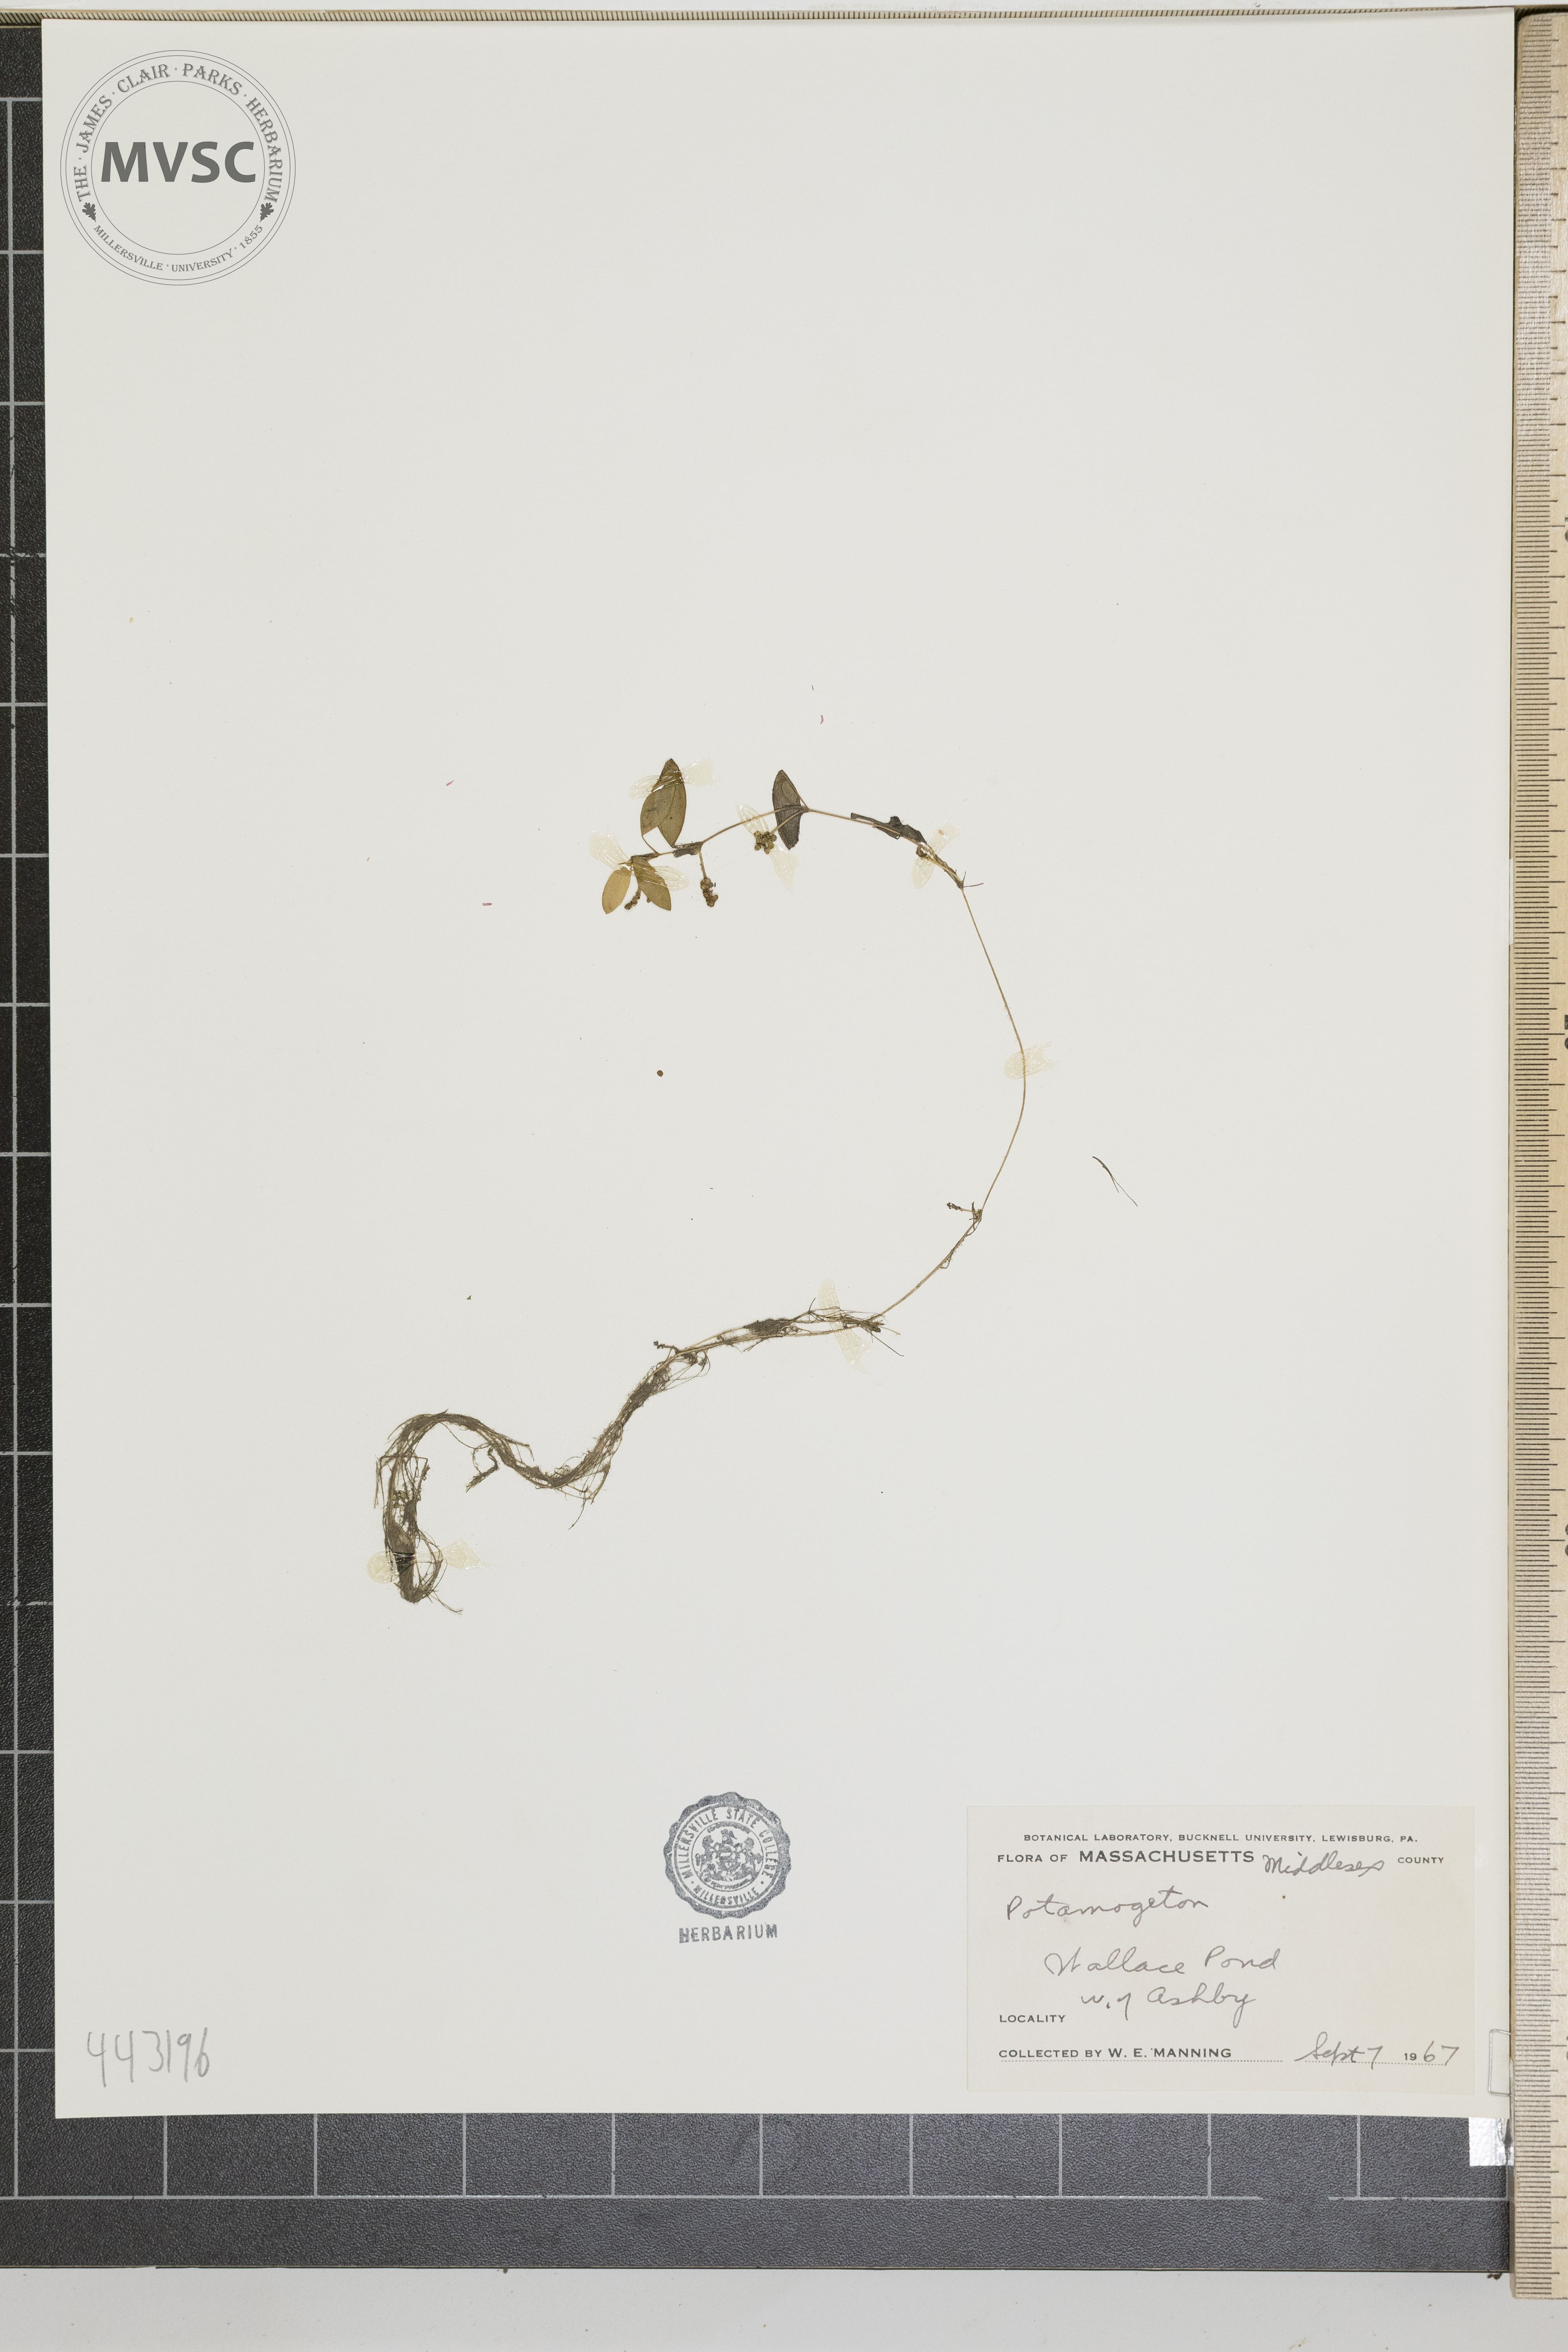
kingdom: Plantae
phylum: Tracheophyta
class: Liliopsida
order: Alismatales
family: Potamogetonaceae
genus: Potamogeton
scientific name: Potamogeton
